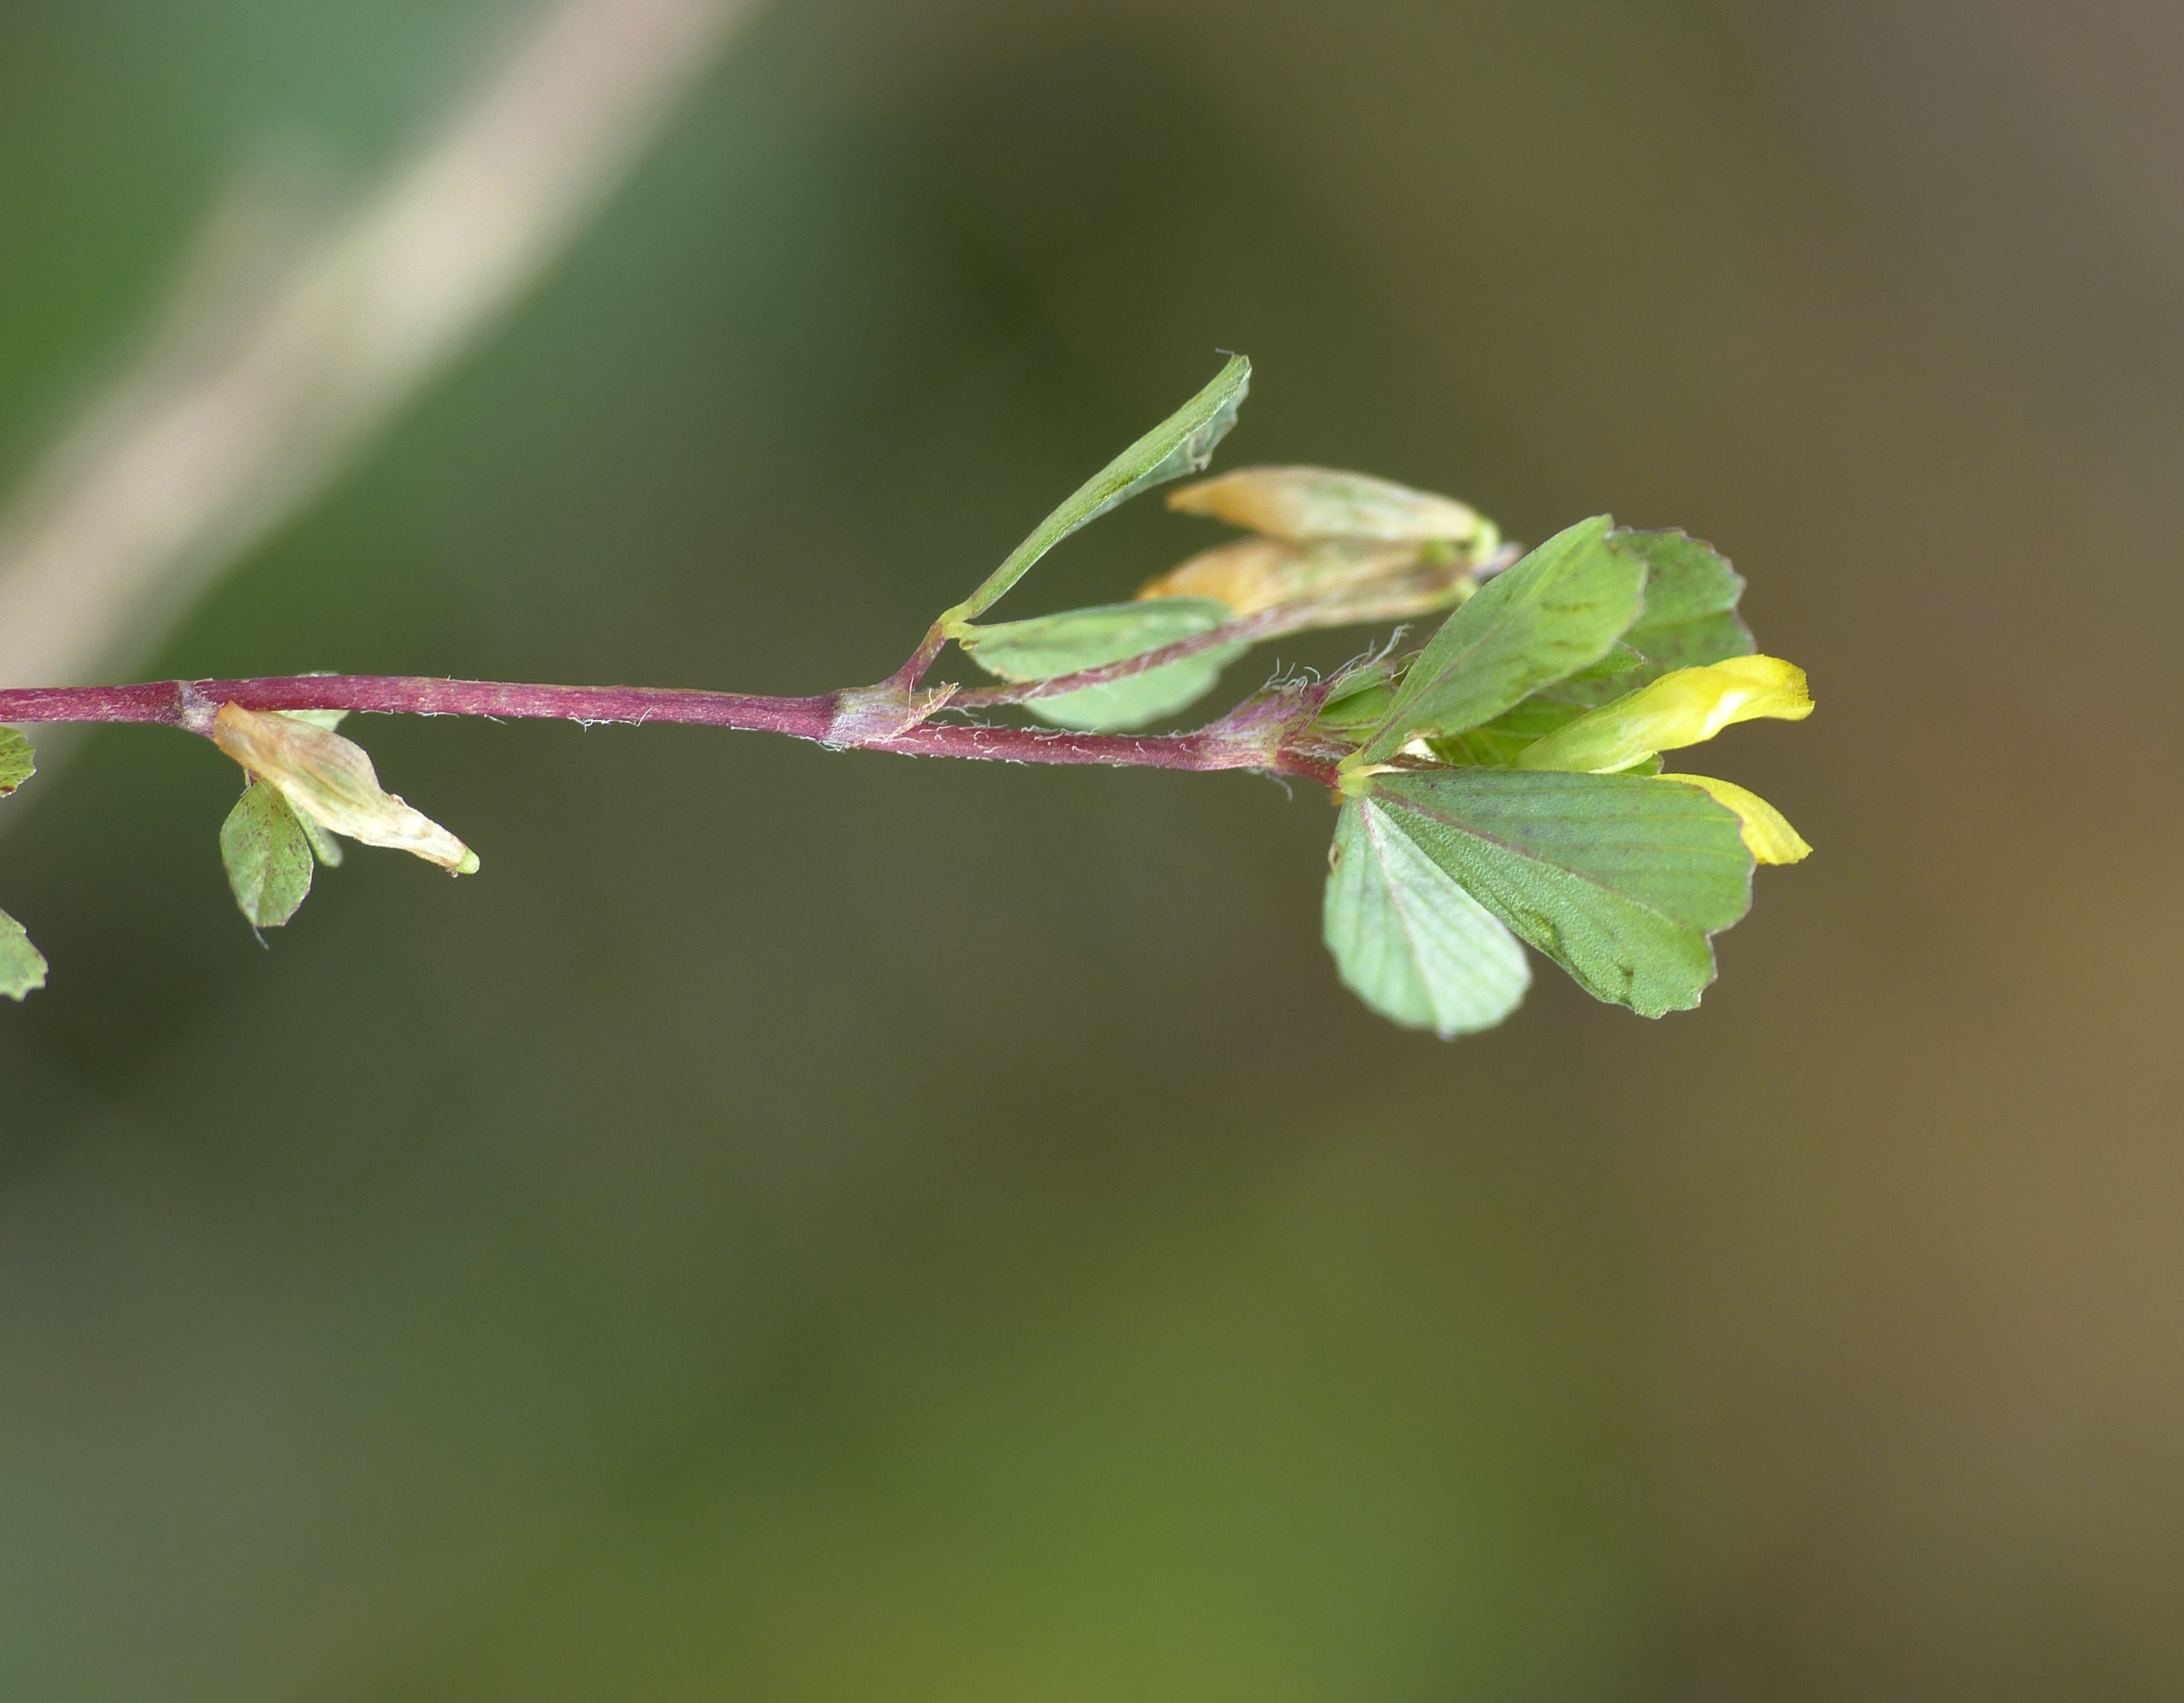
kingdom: Plantae
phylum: Tracheophyta
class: Magnoliopsida
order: Fabales
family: Fabaceae
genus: Trifolium
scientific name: Trifolium micranthum
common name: Spæd kløver
